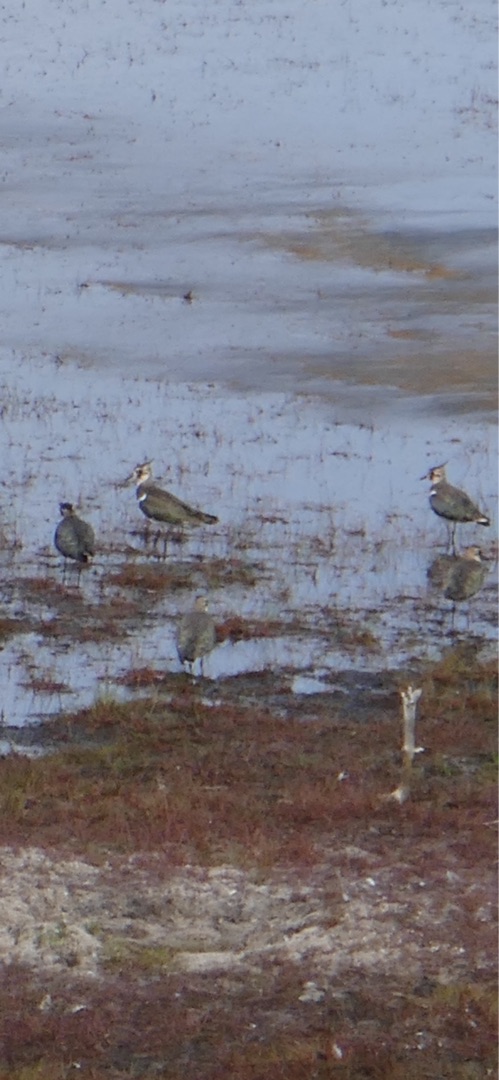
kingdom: Animalia
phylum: Chordata
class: Aves
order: Charadriiformes
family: Charadriidae
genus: Vanellus
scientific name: Vanellus vanellus
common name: Vibe
